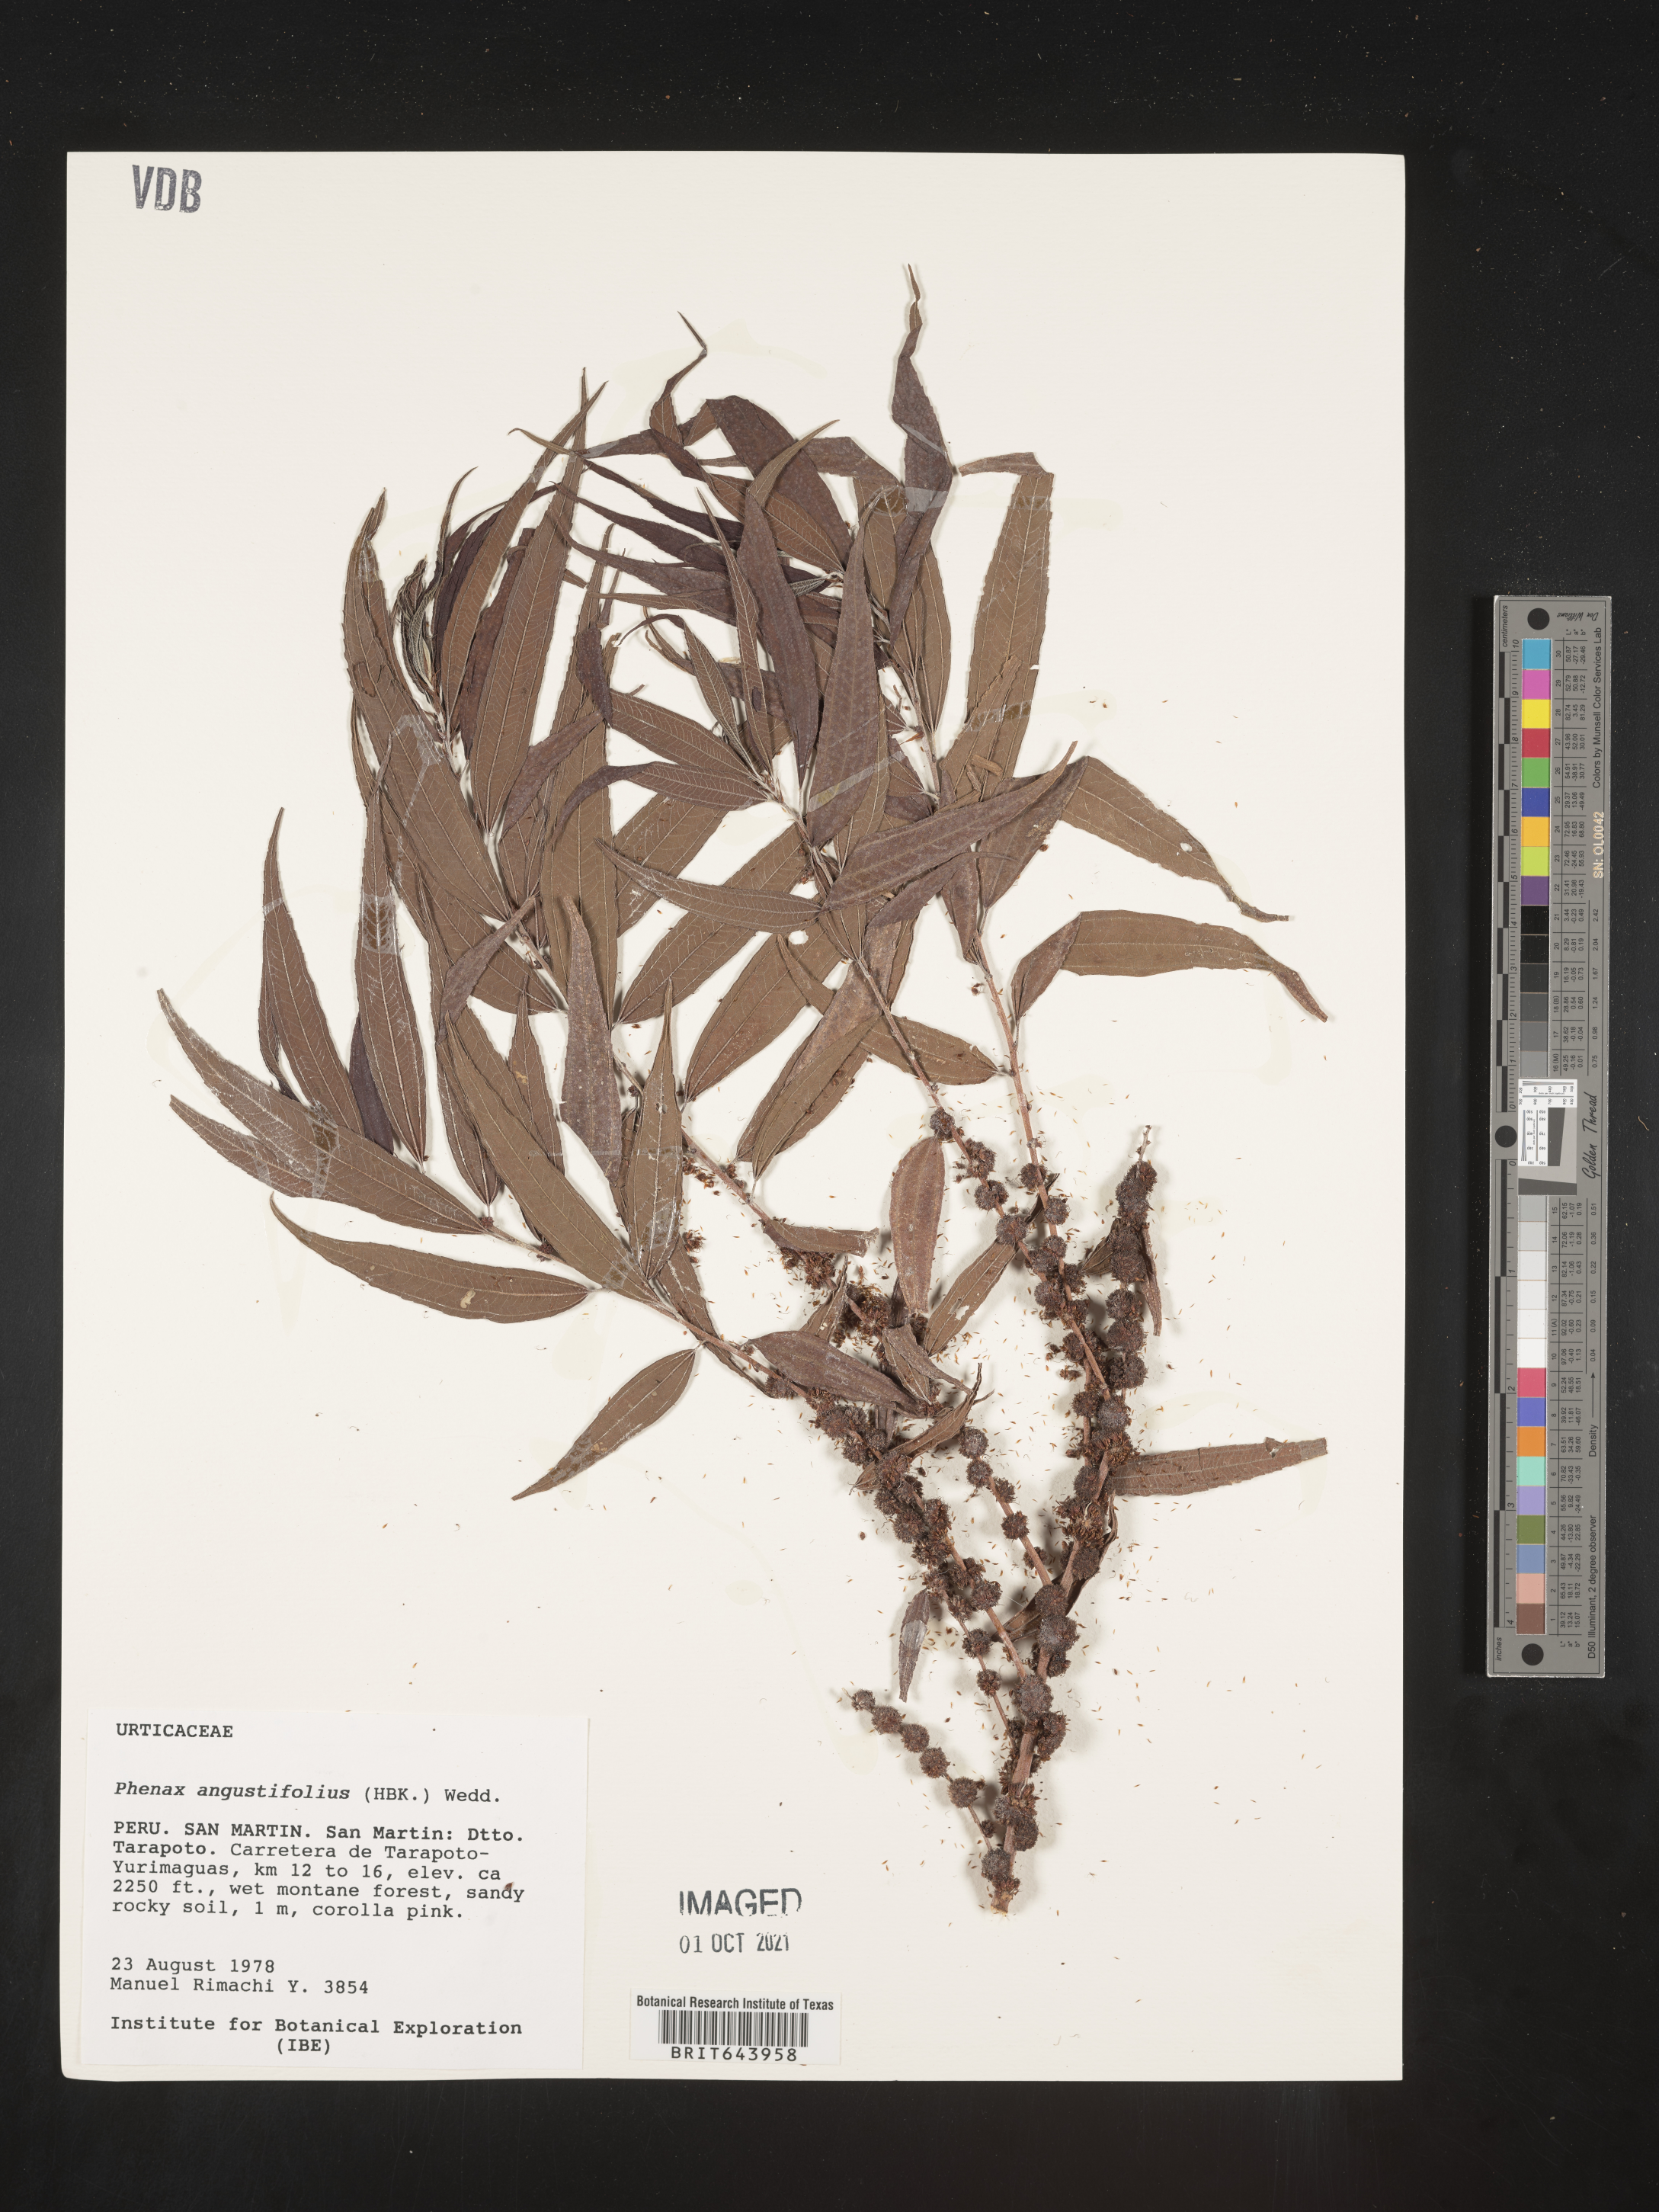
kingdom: Plantae
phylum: Tracheophyta
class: Magnoliopsida
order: Rosales
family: Urticaceae
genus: Phenax
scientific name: Phenax
